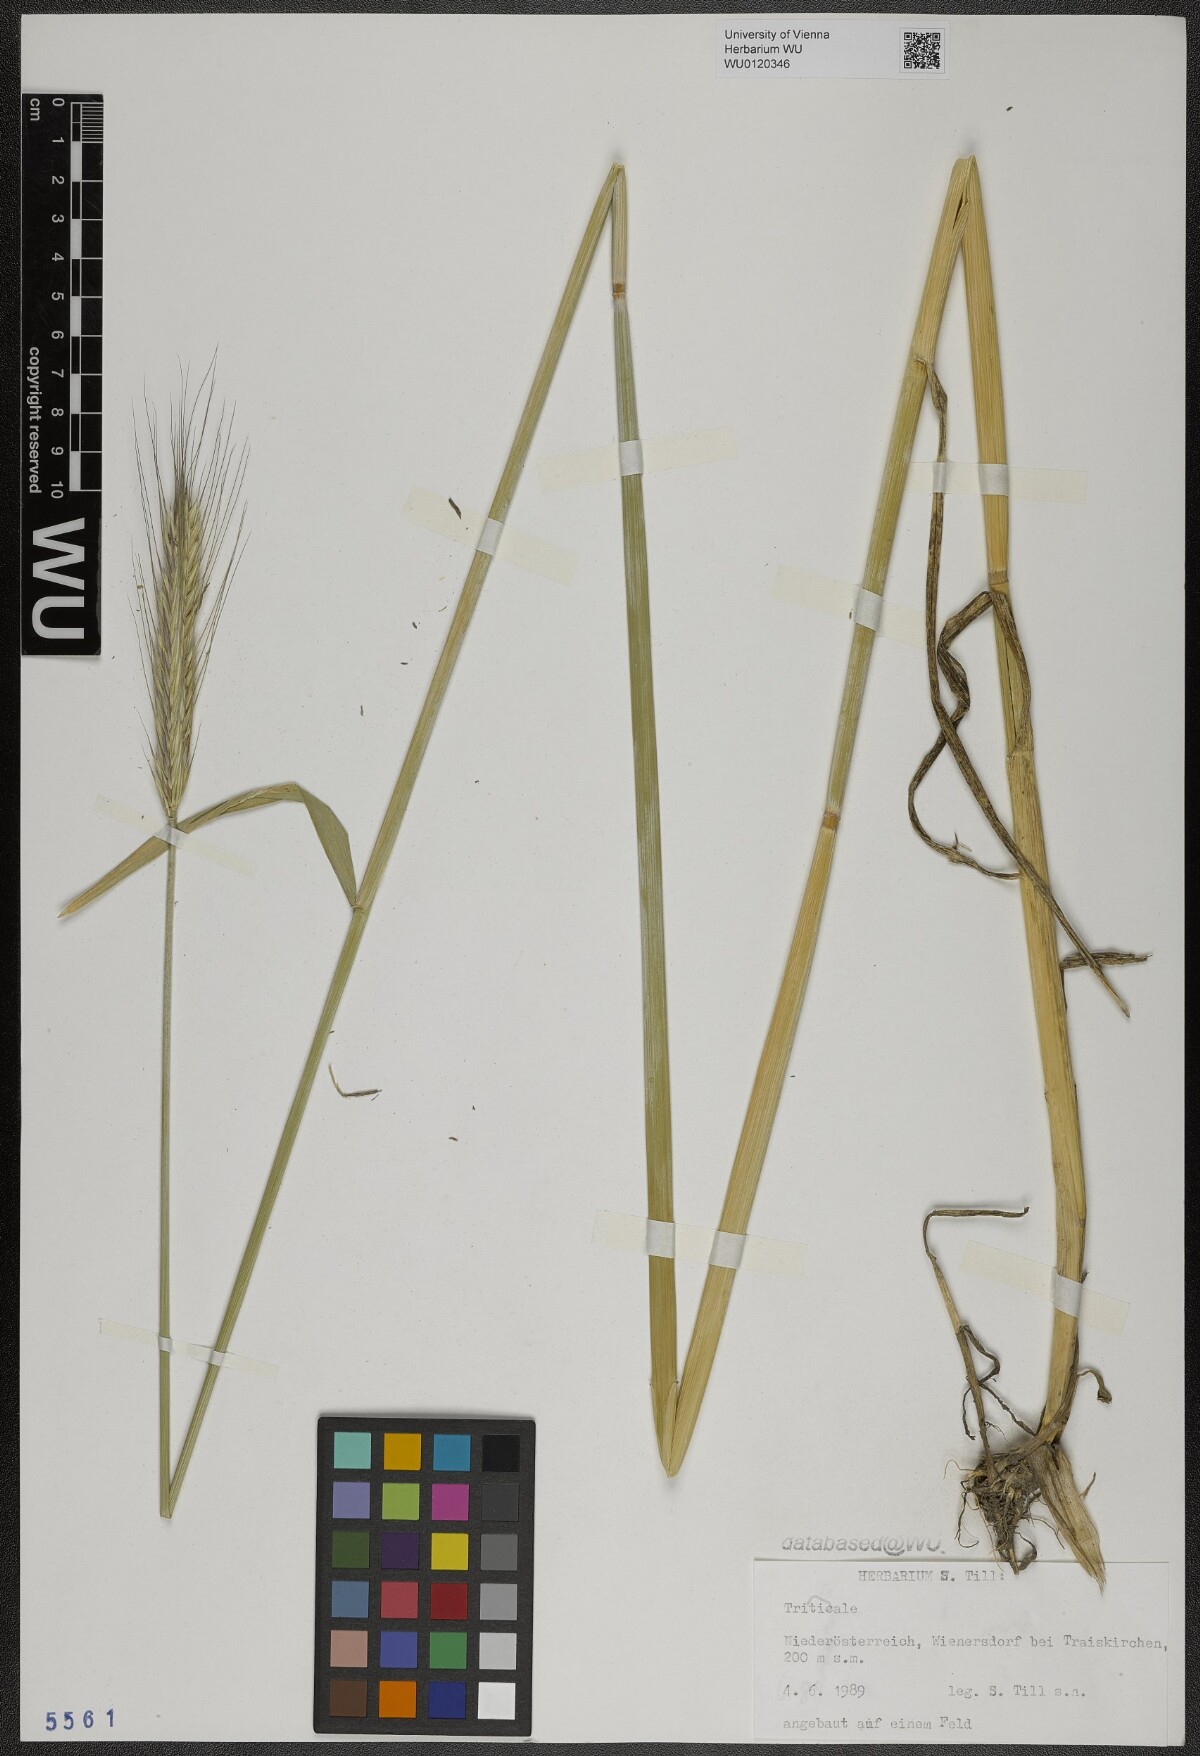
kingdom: Plantae
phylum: Tracheophyta
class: Liliopsida
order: Poales
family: Poaceae
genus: Triticosecale
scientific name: Triticosecale
